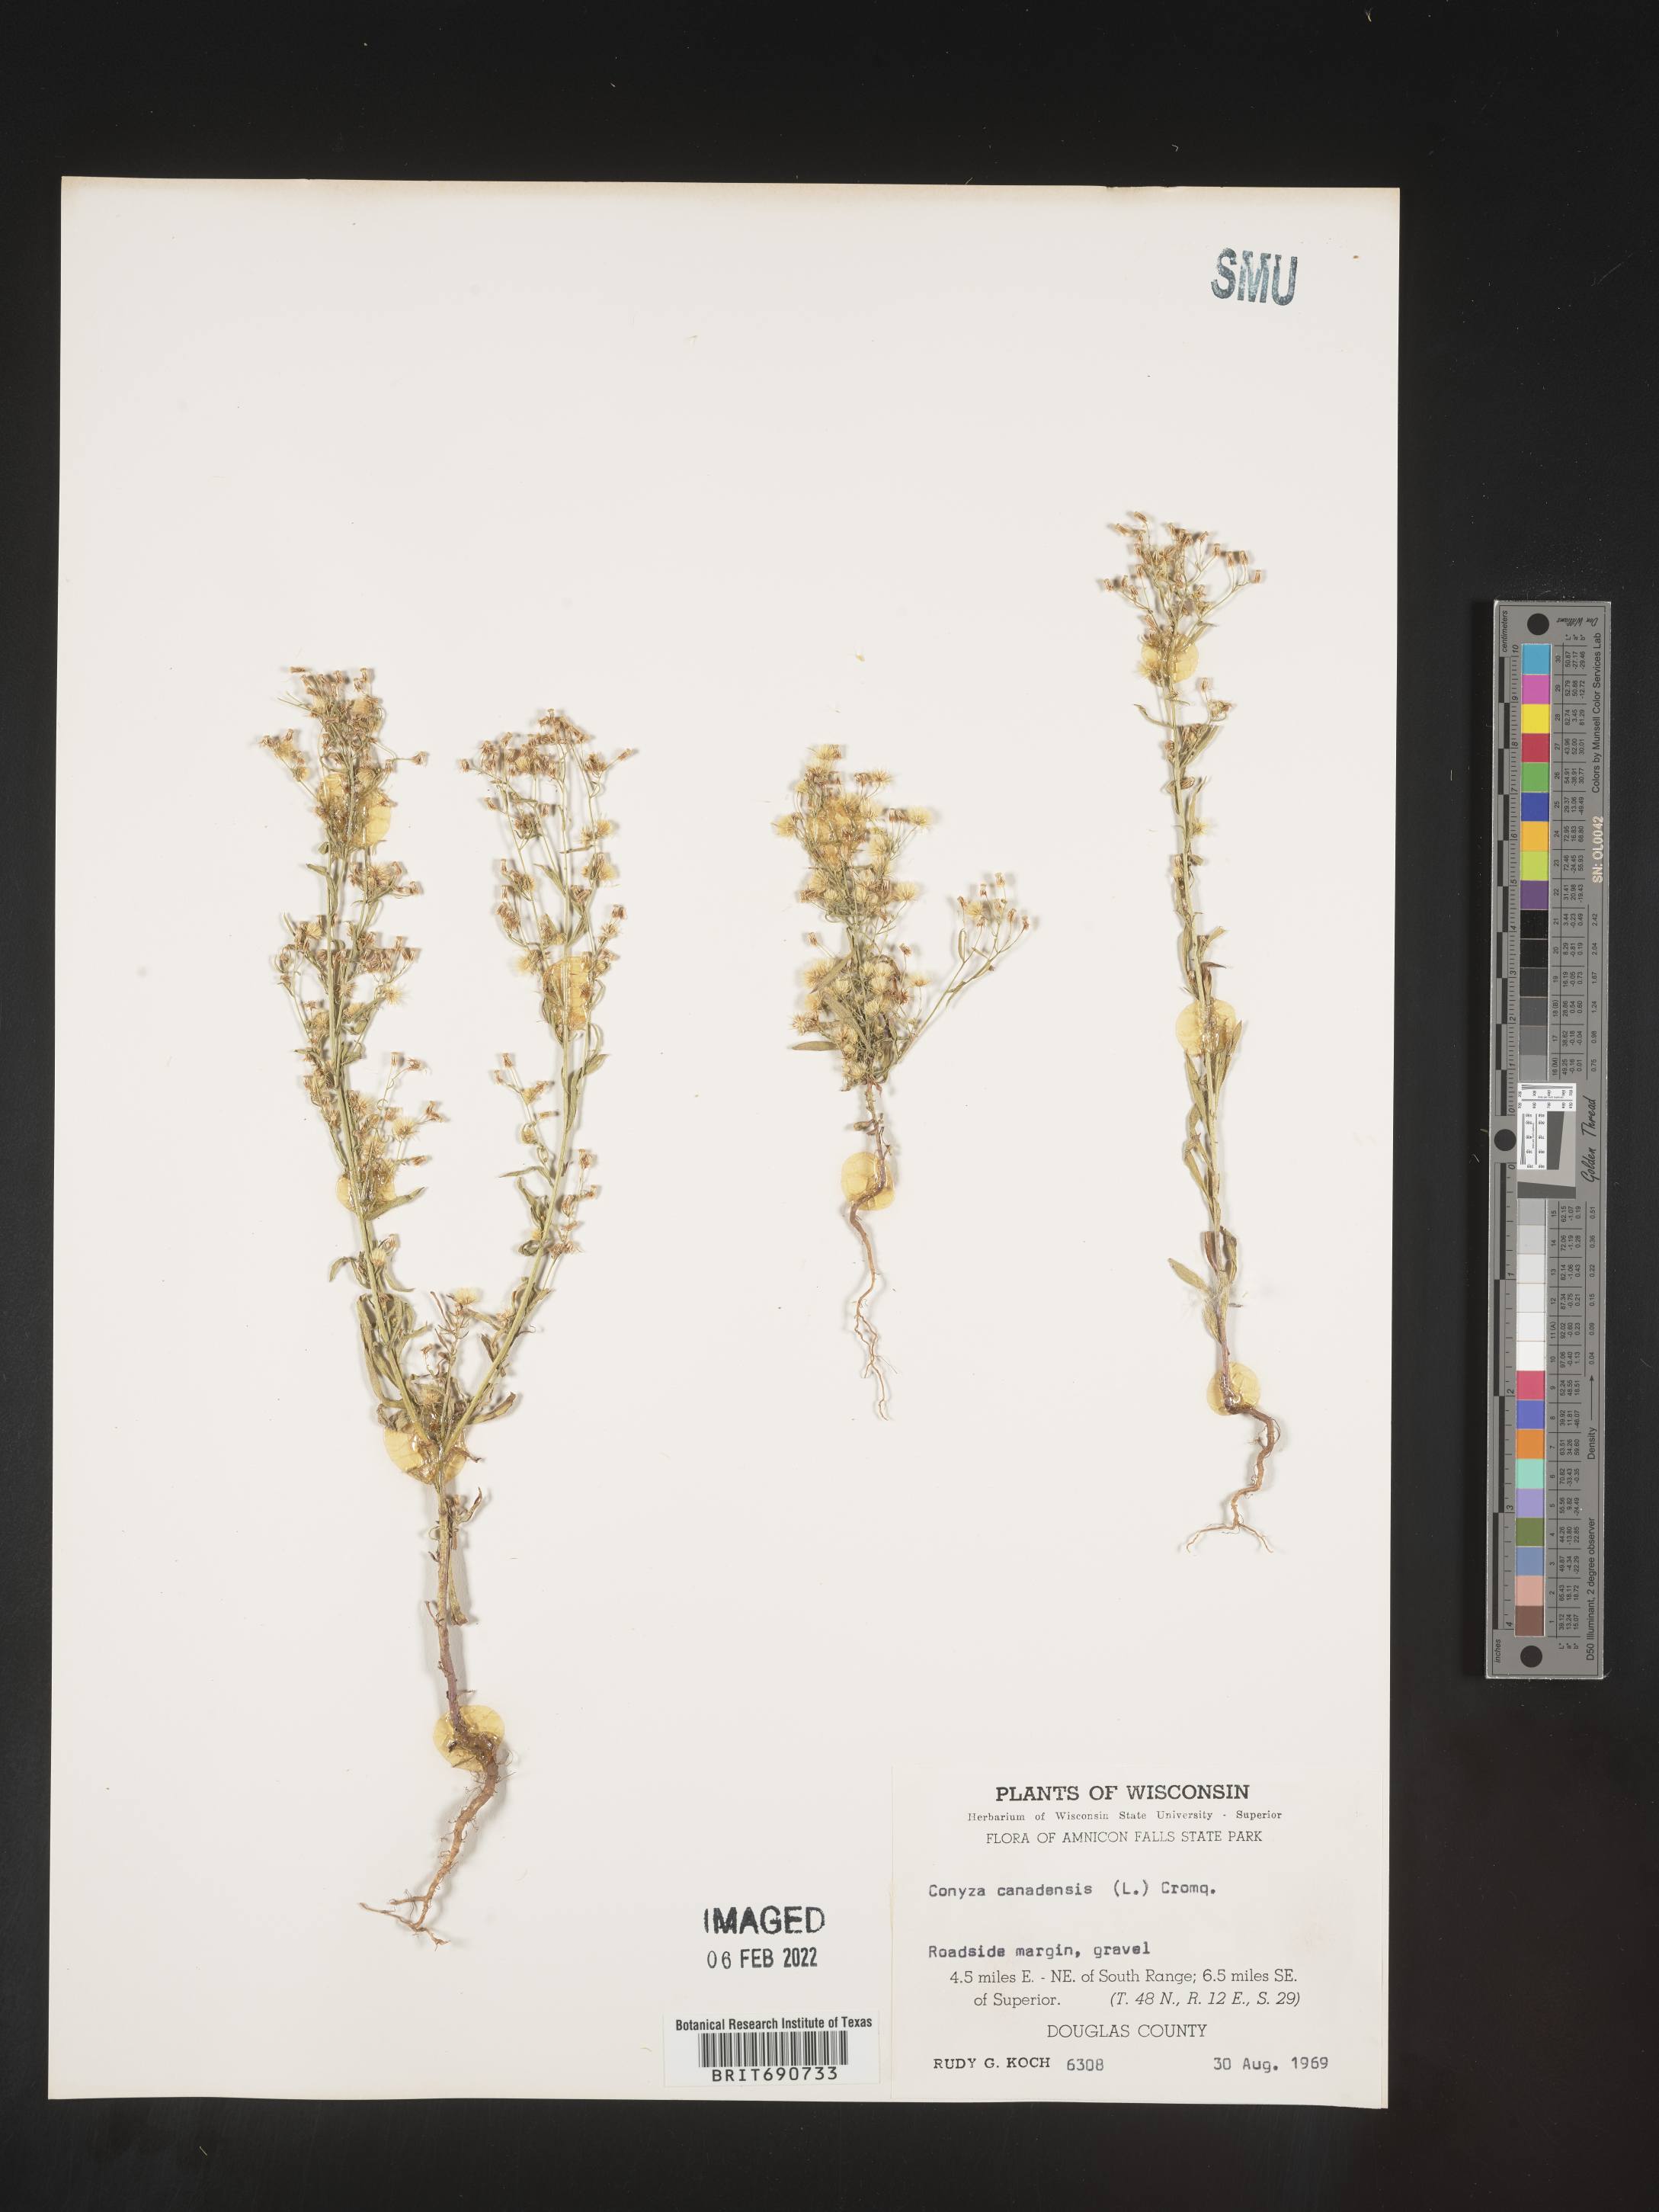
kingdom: Plantae
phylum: Tracheophyta
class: Magnoliopsida
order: Asterales
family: Asteraceae
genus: Erigeron
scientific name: Erigeron canadensis
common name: Canadian fleabane
